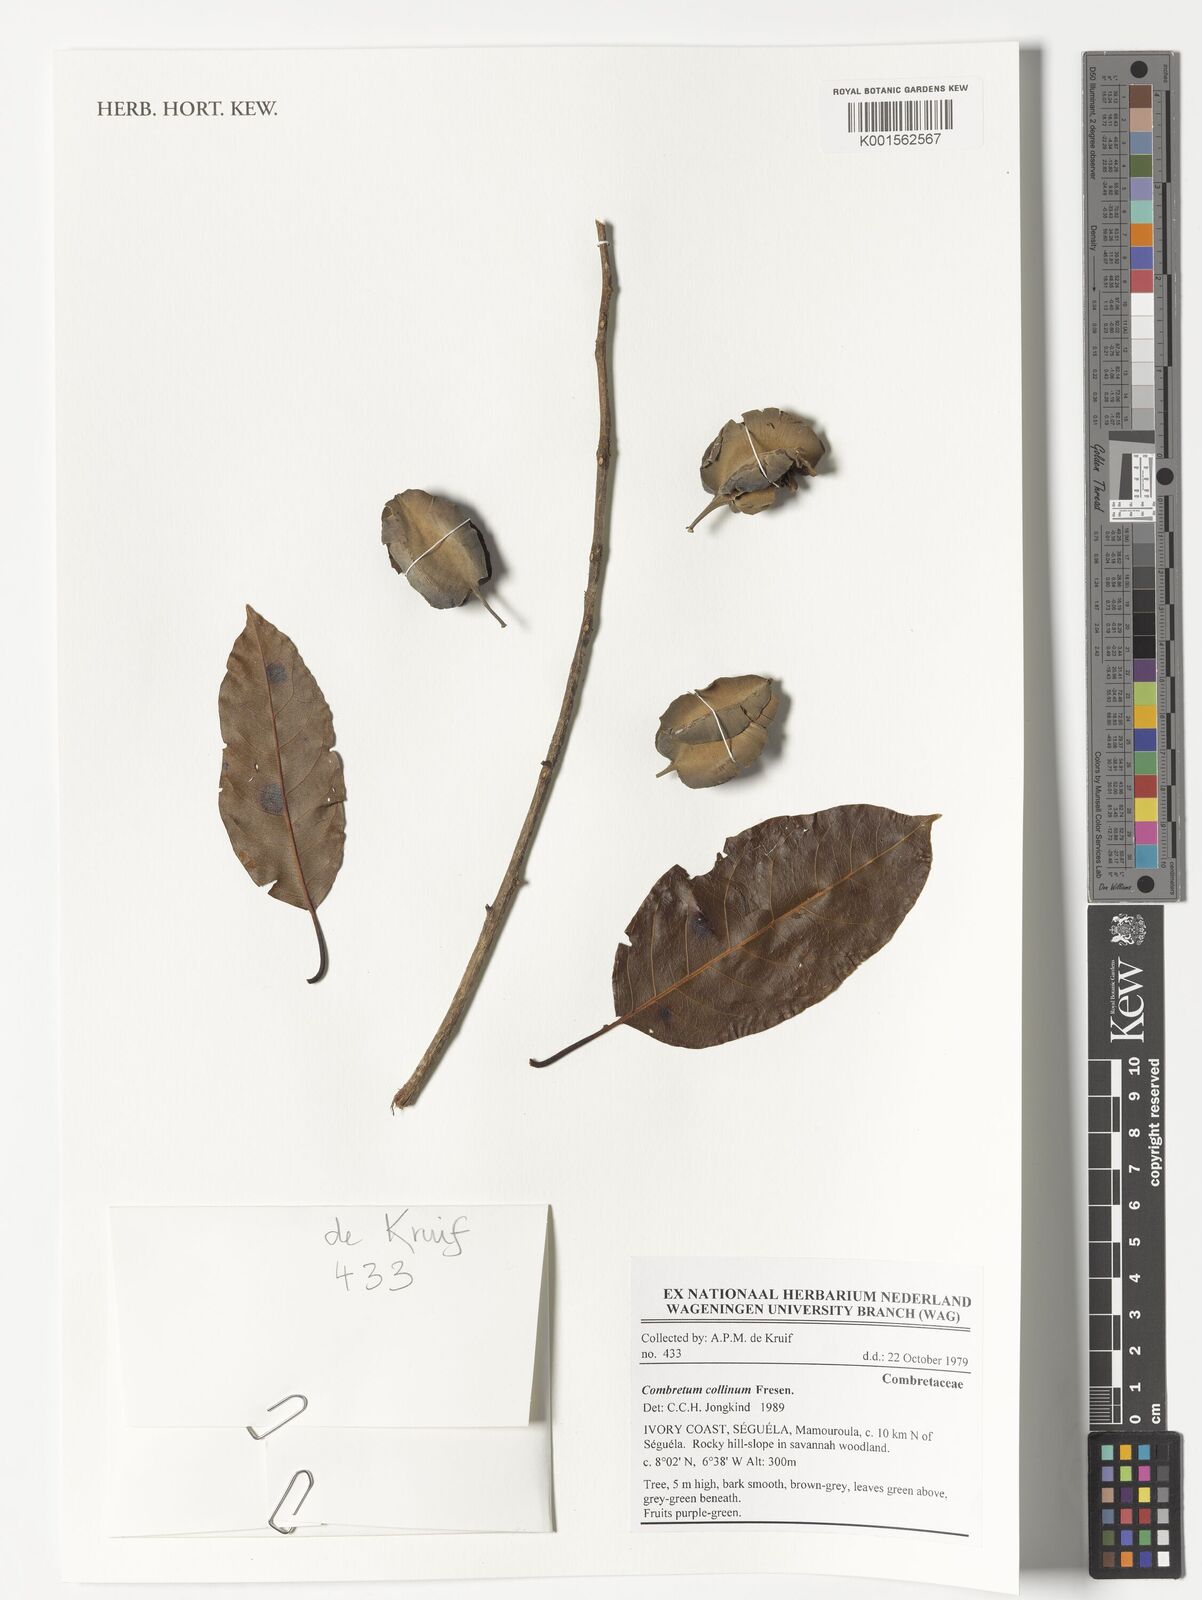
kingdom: Plantae
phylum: Tracheophyta
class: Magnoliopsida
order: Myrtales
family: Combretaceae
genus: Combretum
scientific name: Combretum collinum
